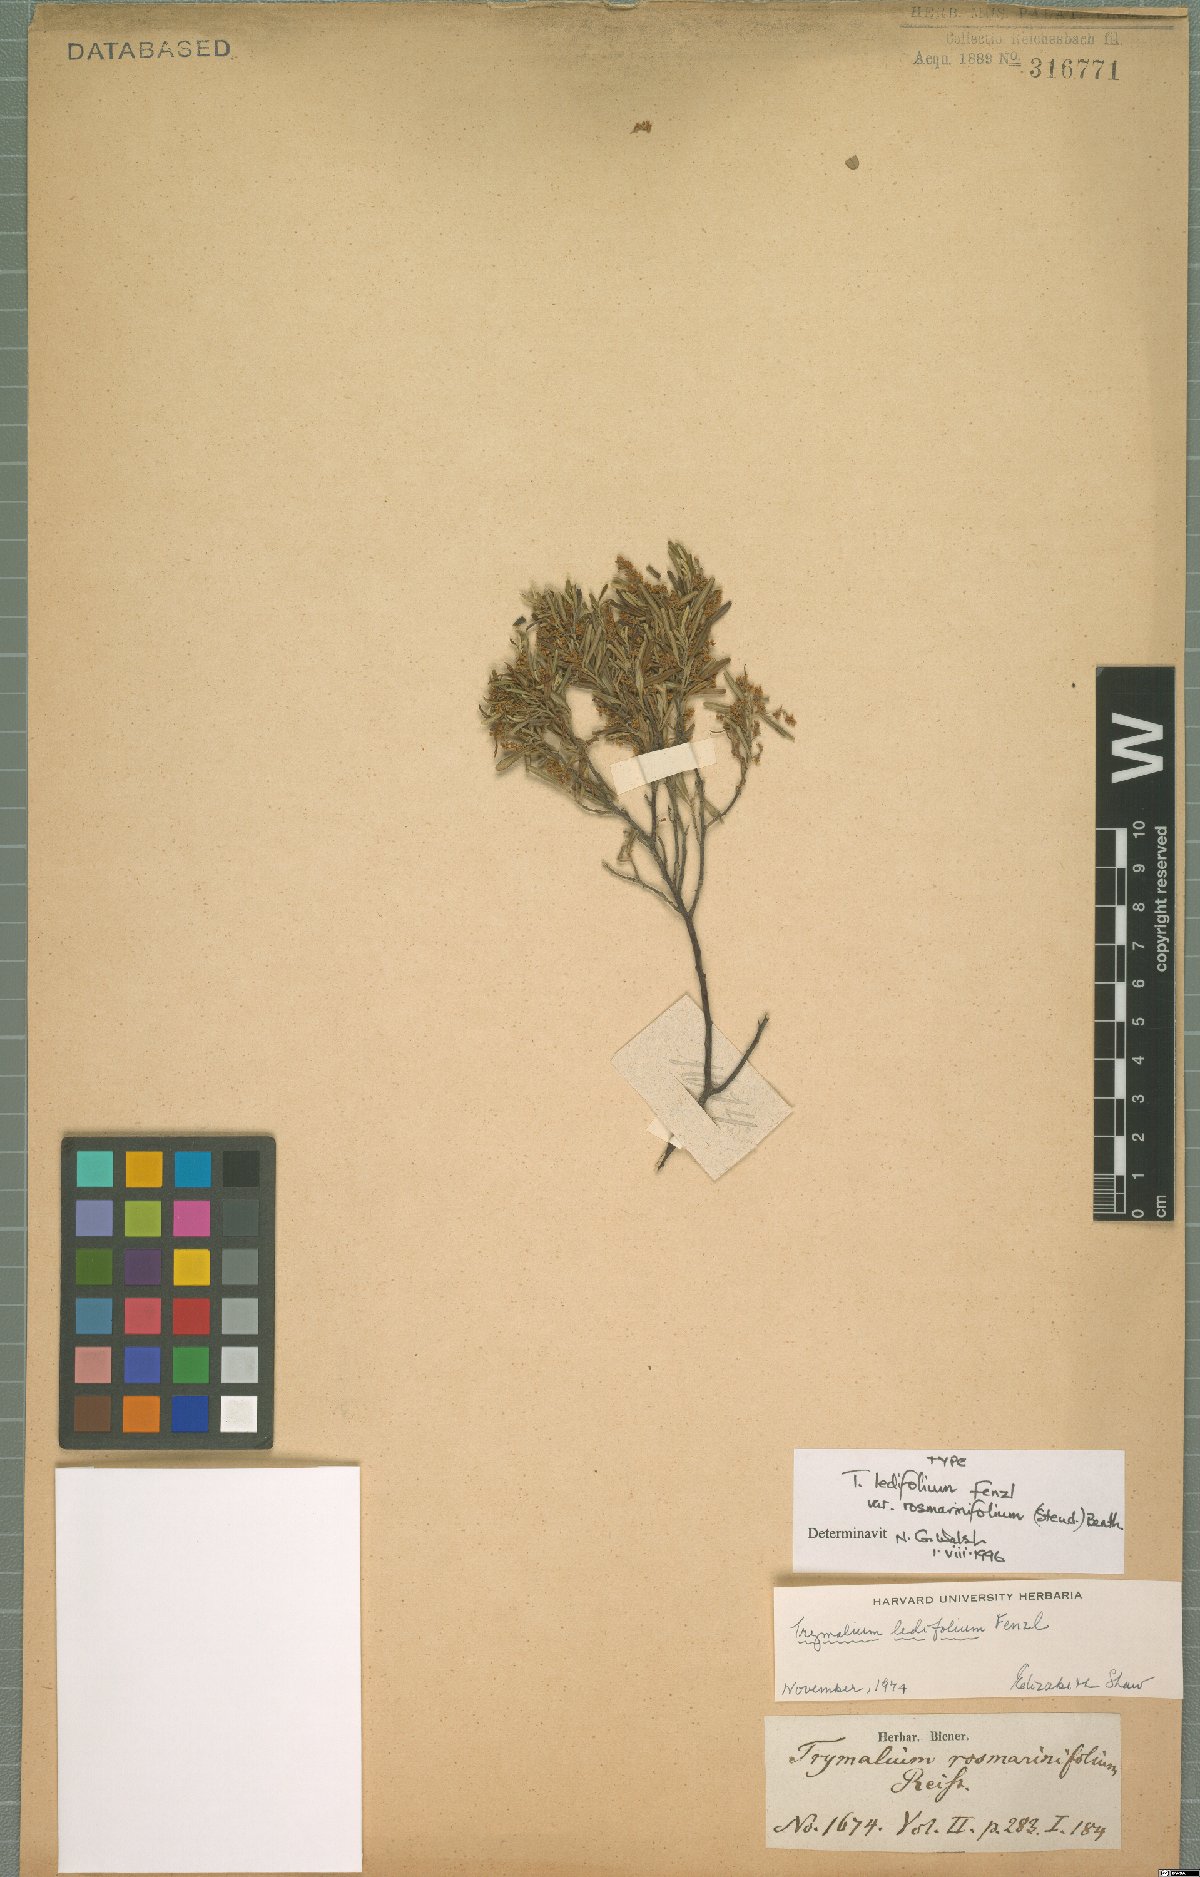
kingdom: Plantae
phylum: Tracheophyta
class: Magnoliopsida
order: Rosales
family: Rhamnaceae
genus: Trymalium
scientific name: Trymalium ledifolium
